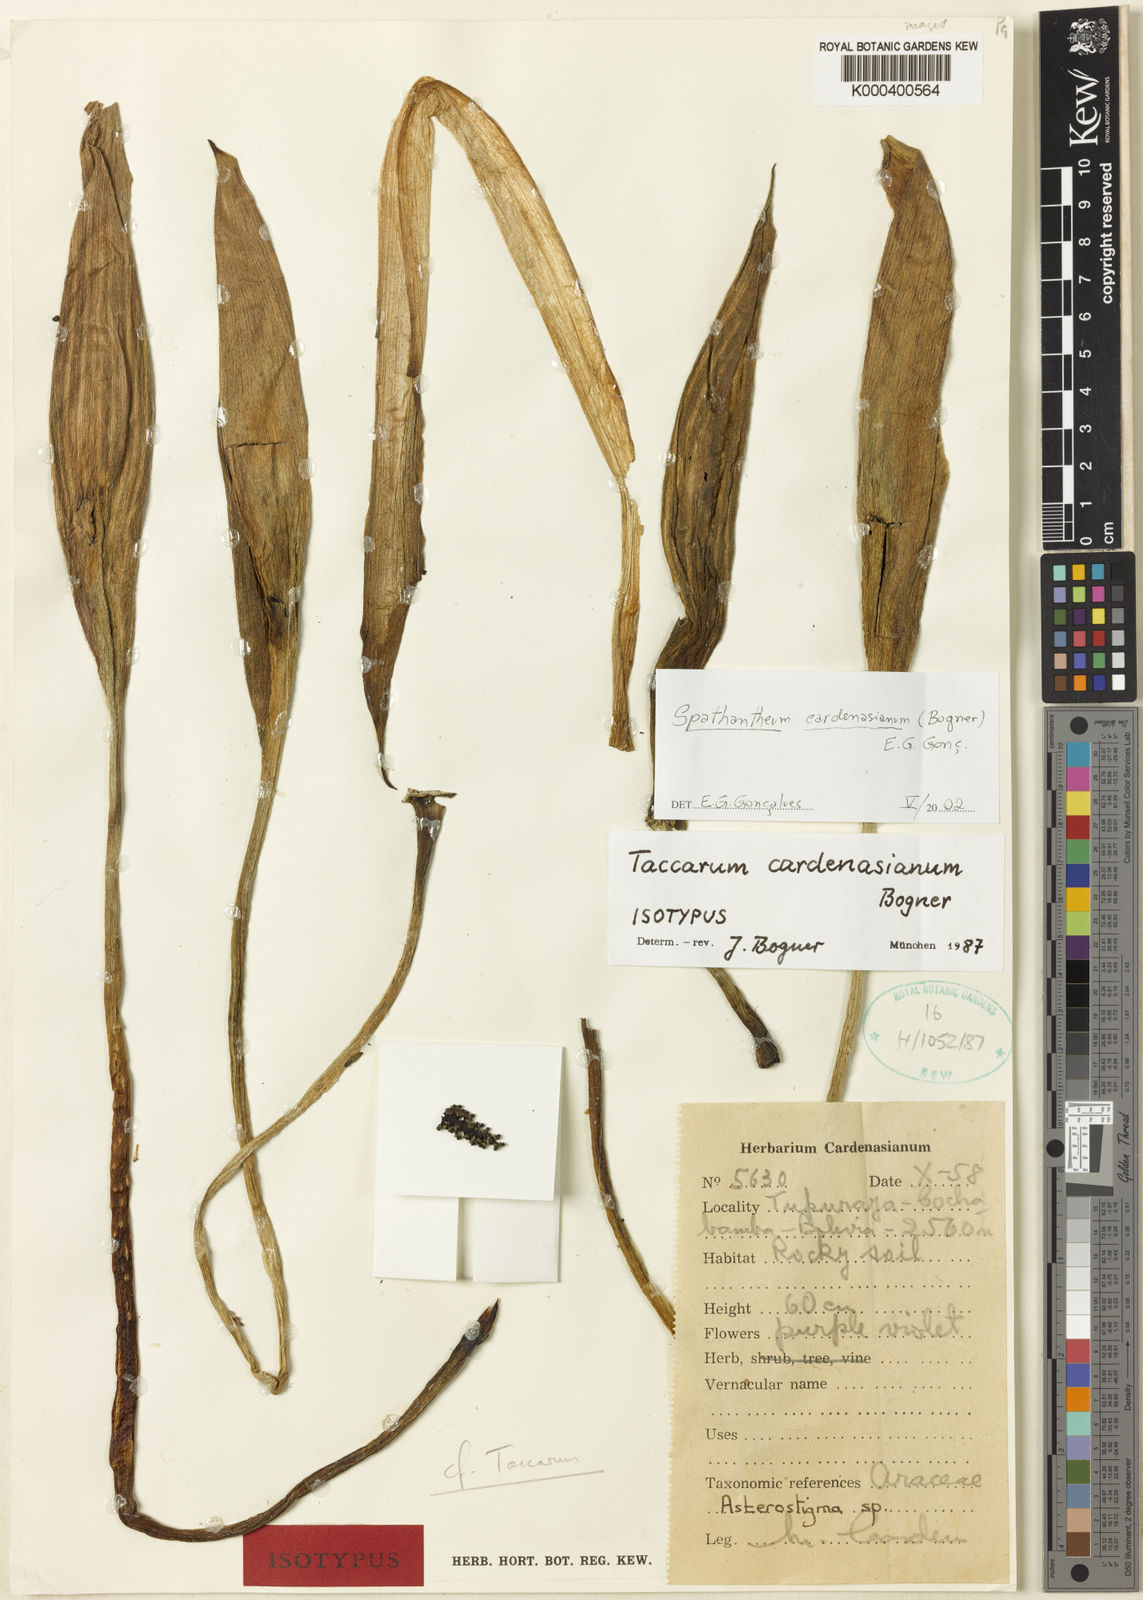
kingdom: Plantae
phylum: Tracheophyta
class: Liliopsida
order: Alismatales
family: Araceae
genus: Gorgonidium
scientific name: Gorgonidium
